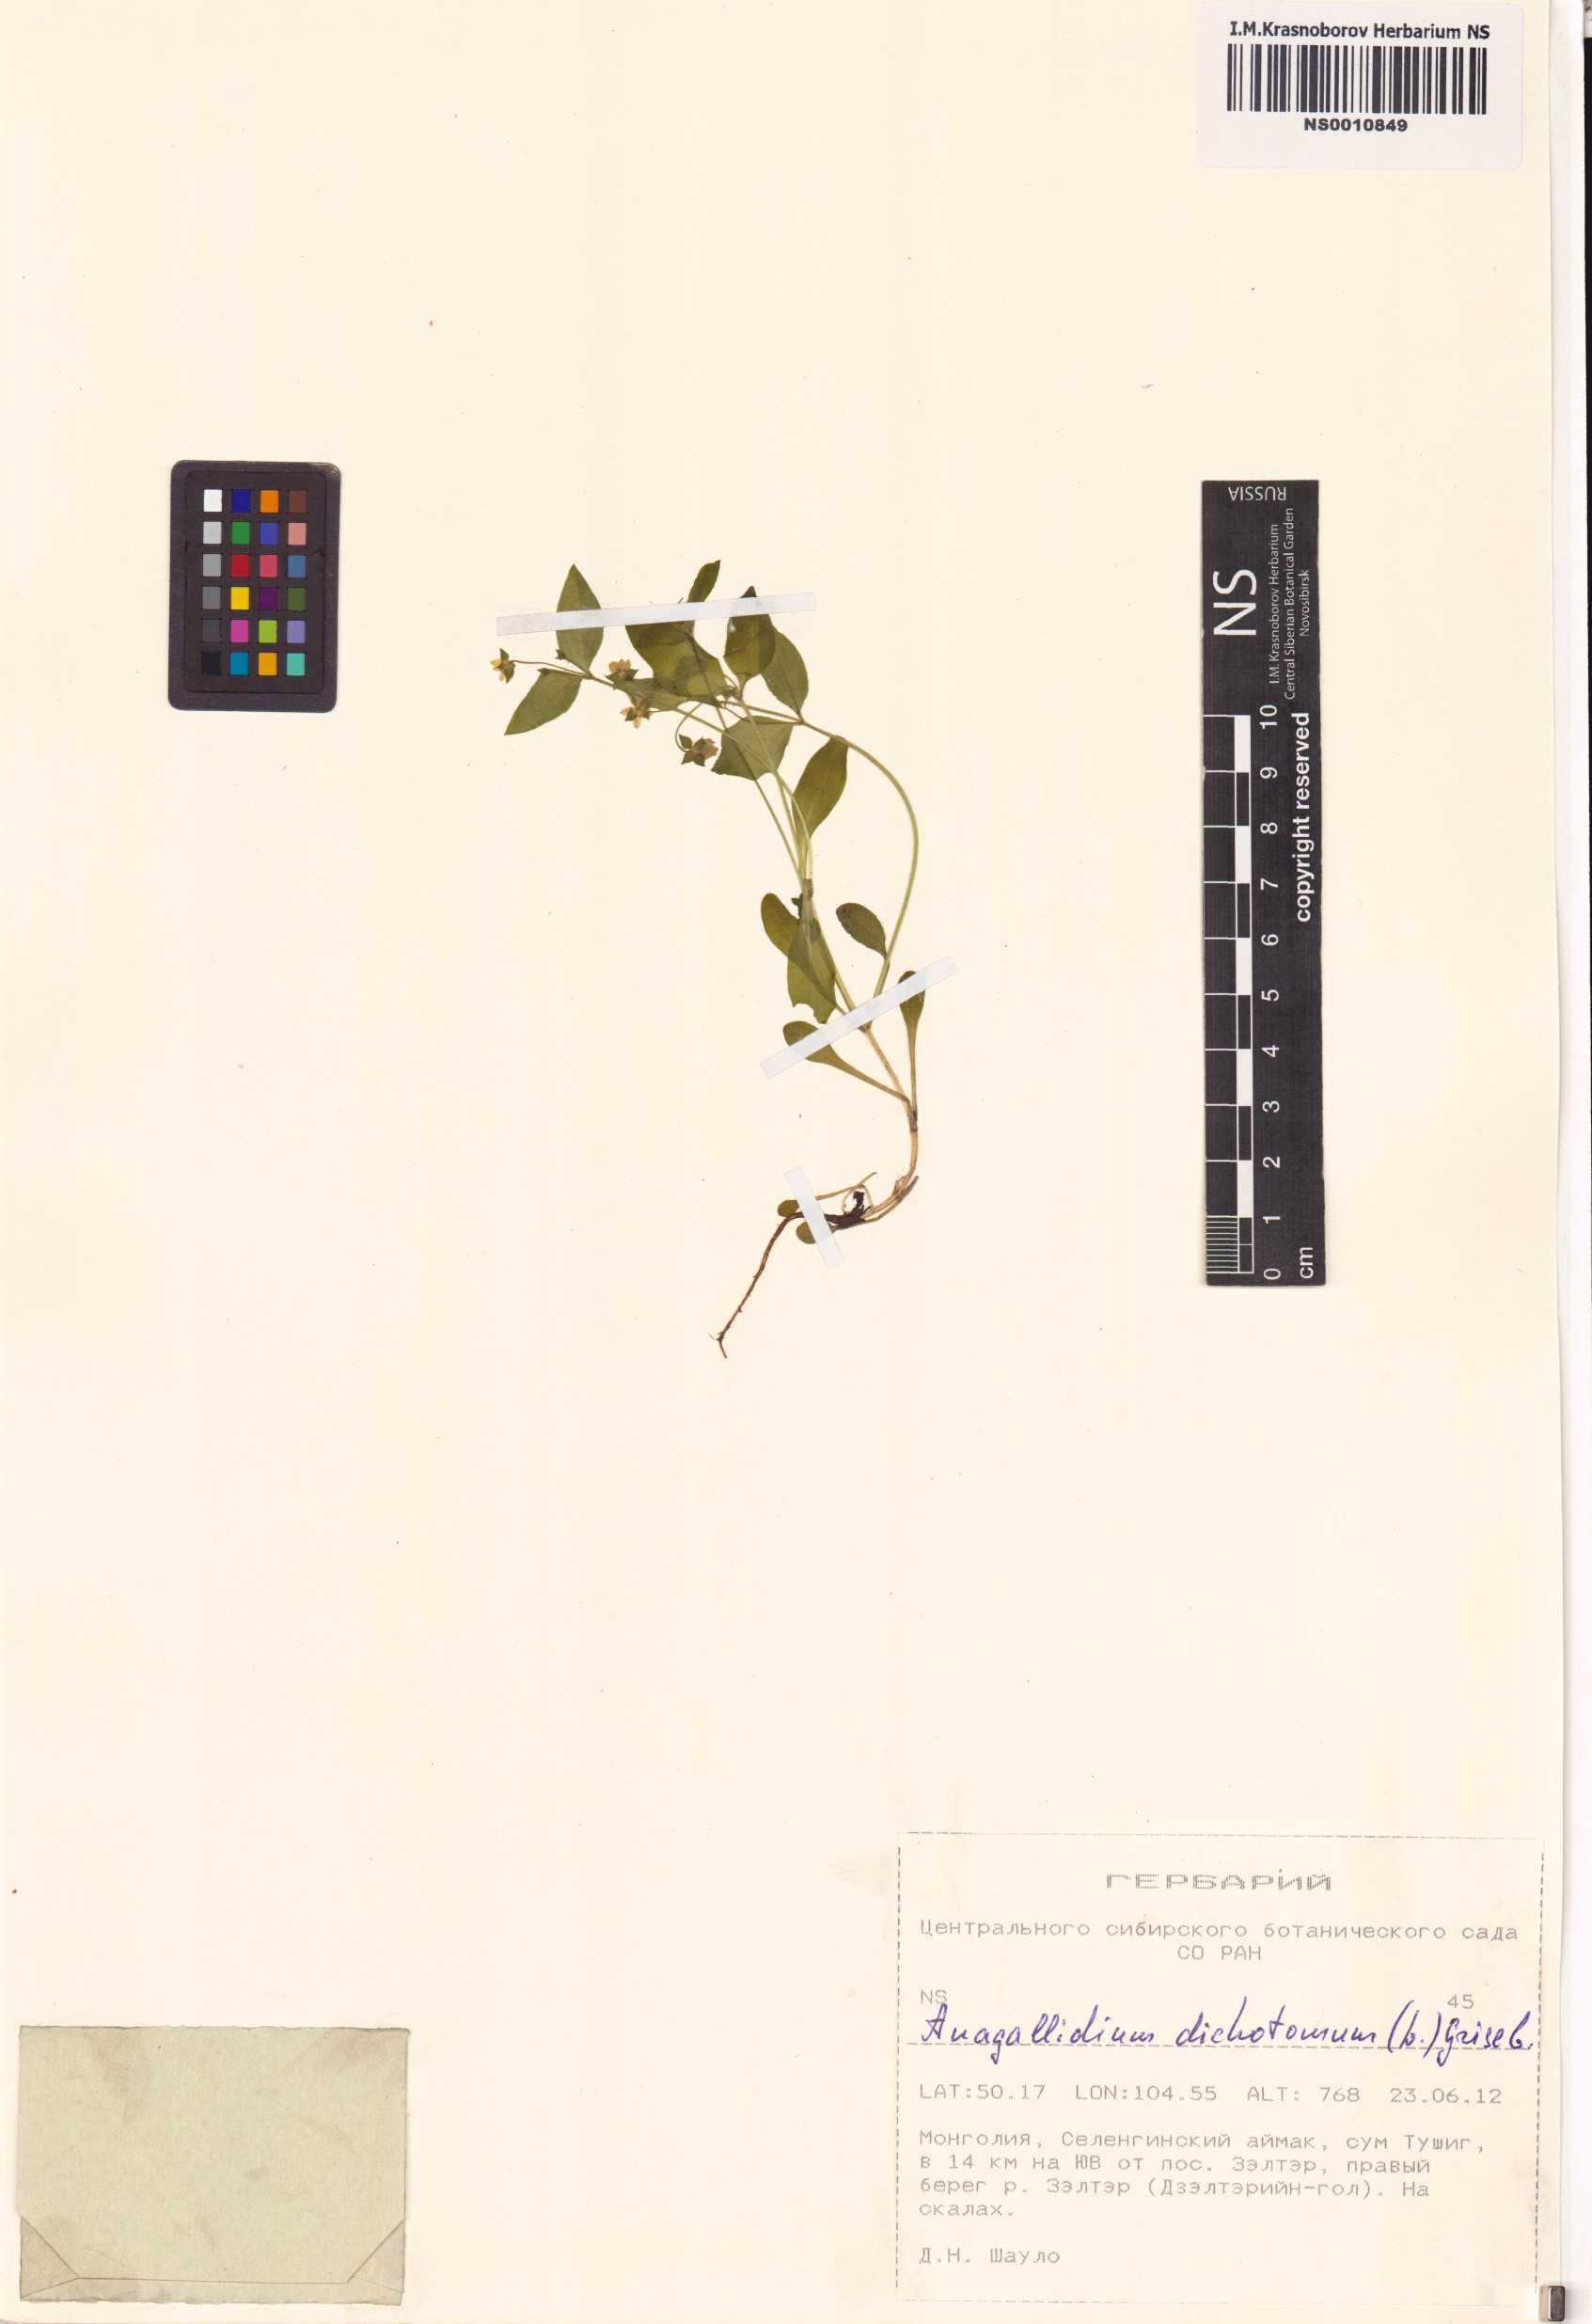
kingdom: Plantae
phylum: Tracheophyta
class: Magnoliopsida
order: Gentianales
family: Gentianaceae
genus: Swertia
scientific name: Swertia dichotoma
